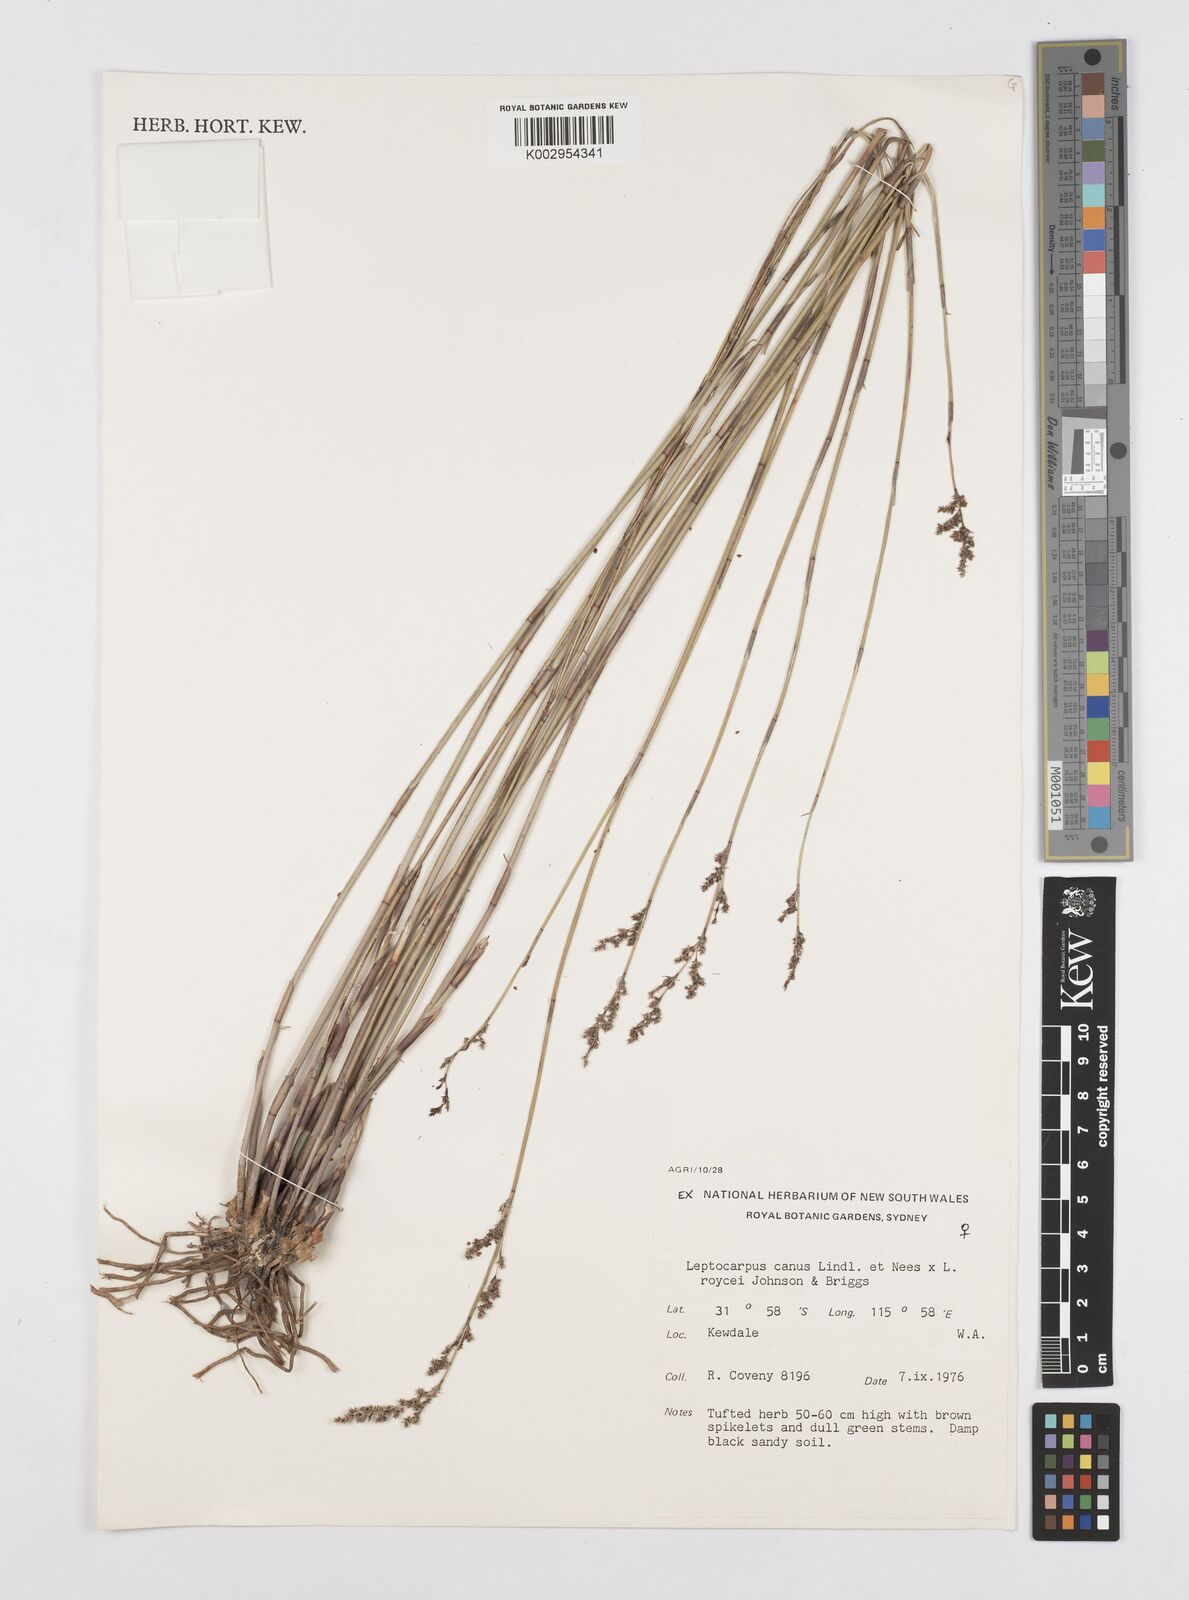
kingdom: Plantae
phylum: Tracheophyta
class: Liliopsida
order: Poales
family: Restionaceae
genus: Leptocarpus
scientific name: Leptocarpus canus
